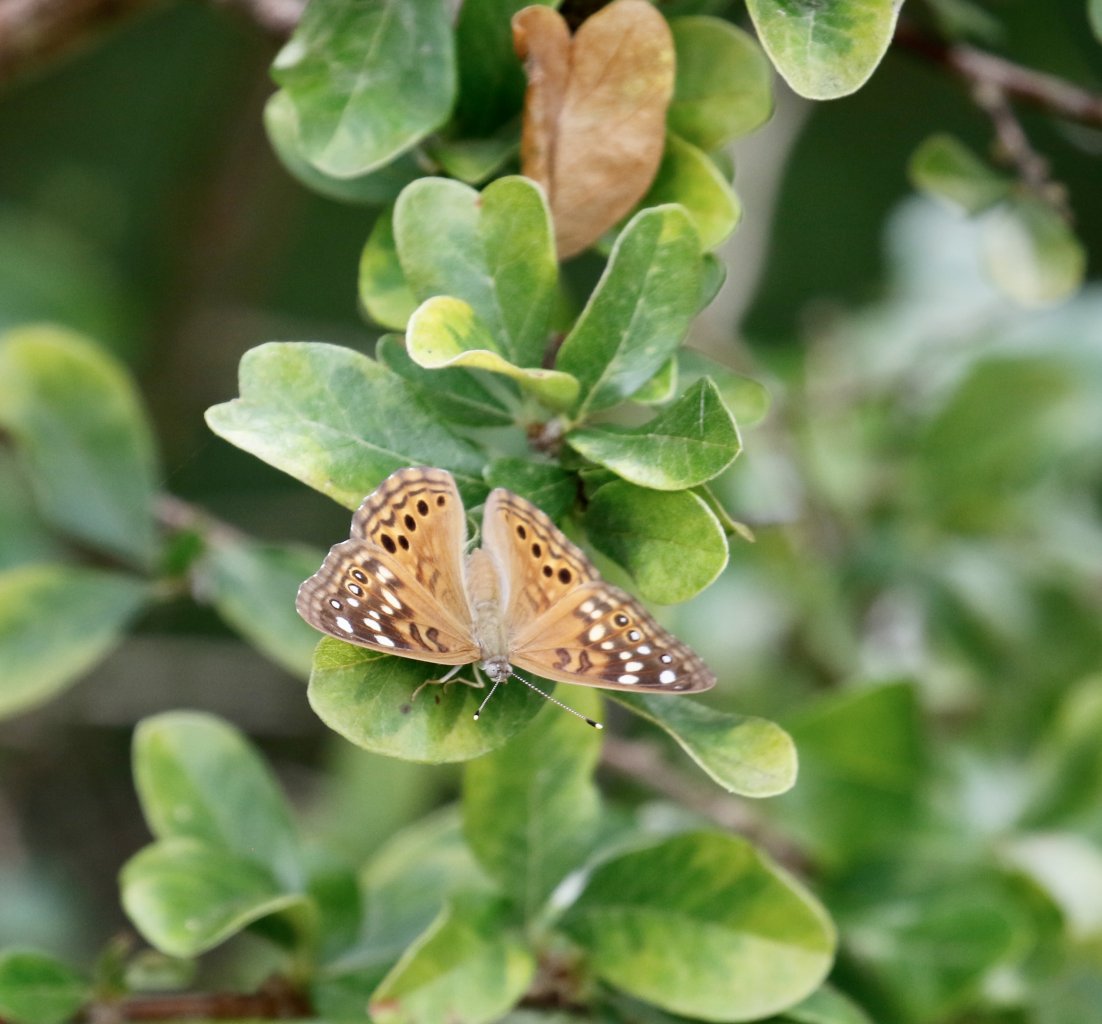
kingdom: Animalia
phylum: Arthropoda
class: Insecta
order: Lepidoptera
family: Nymphalidae
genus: Asterocampa
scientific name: Asterocampa celtis
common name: Hackberry Emperor
